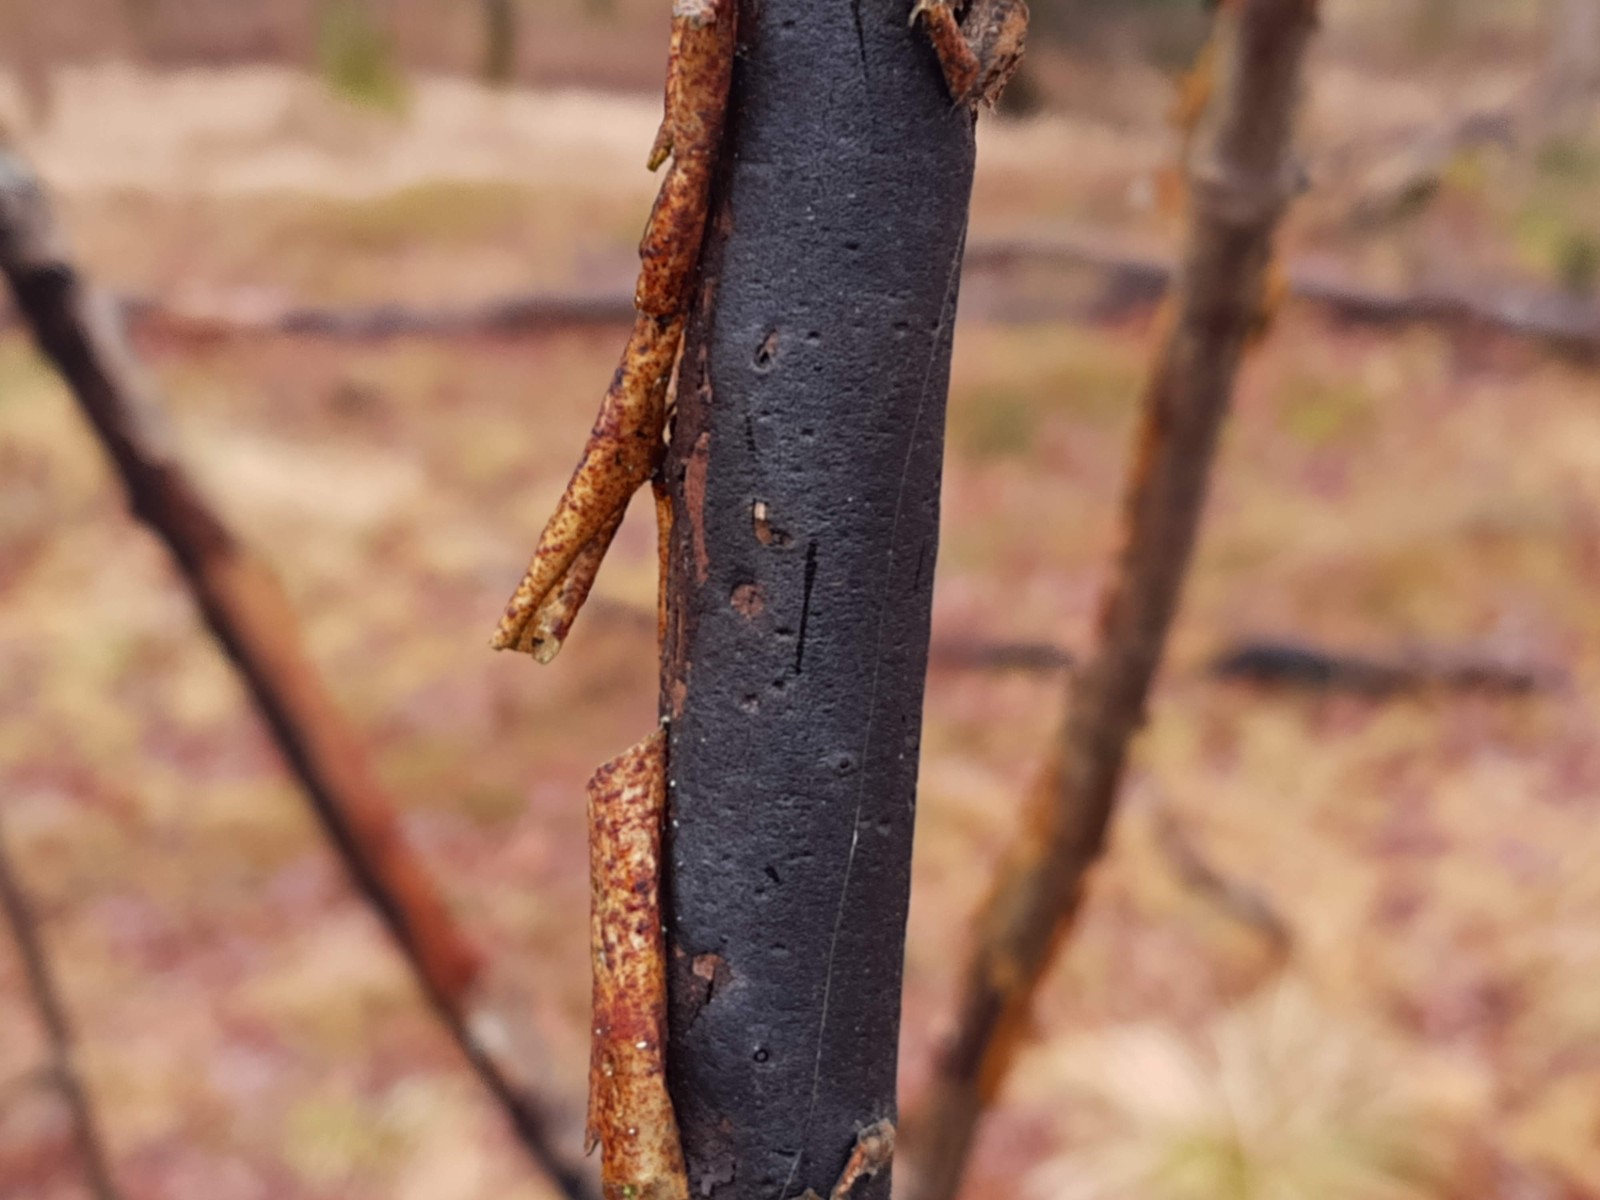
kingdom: Fungi
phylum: Ascomycota
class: Sordariomycetes
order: Xylariales
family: Diatrypaceae
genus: Diatrype
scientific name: Diatrype decorticata
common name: barksprænger-kulskorpe
